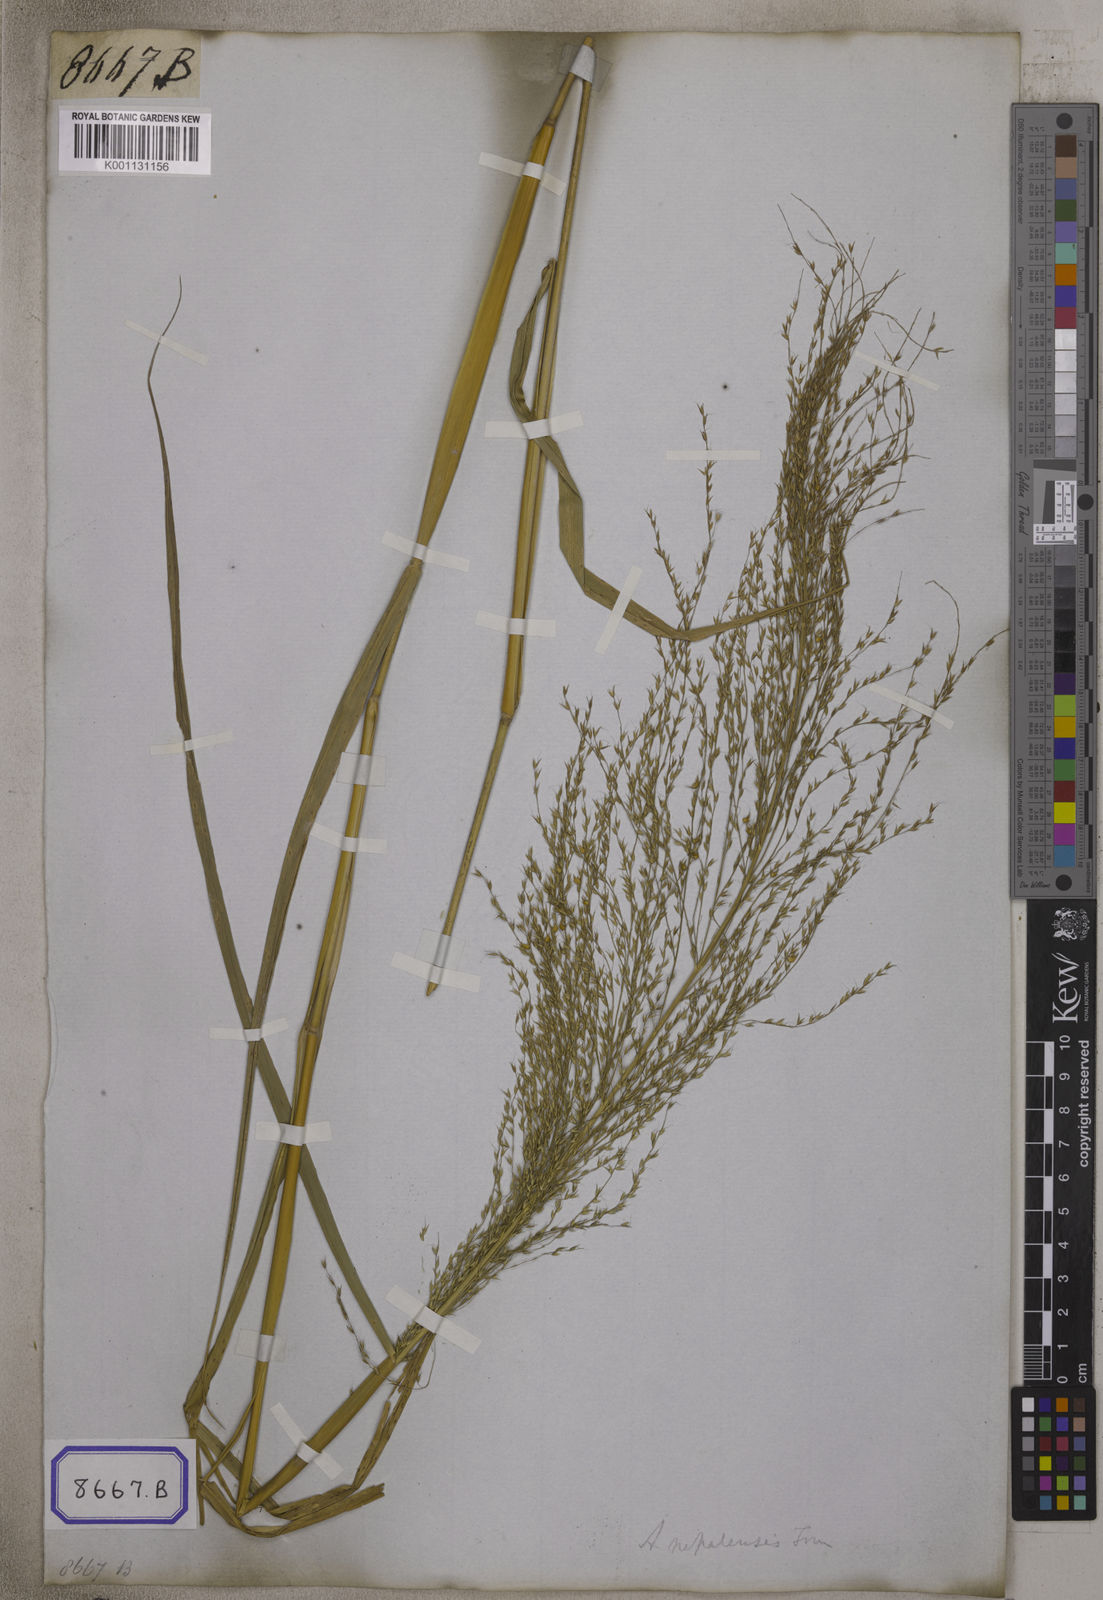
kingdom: Plantae
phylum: Tracheophyta
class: Liliopsida
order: Poales
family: Poaceae
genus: Arundinella
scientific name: Arundinella
